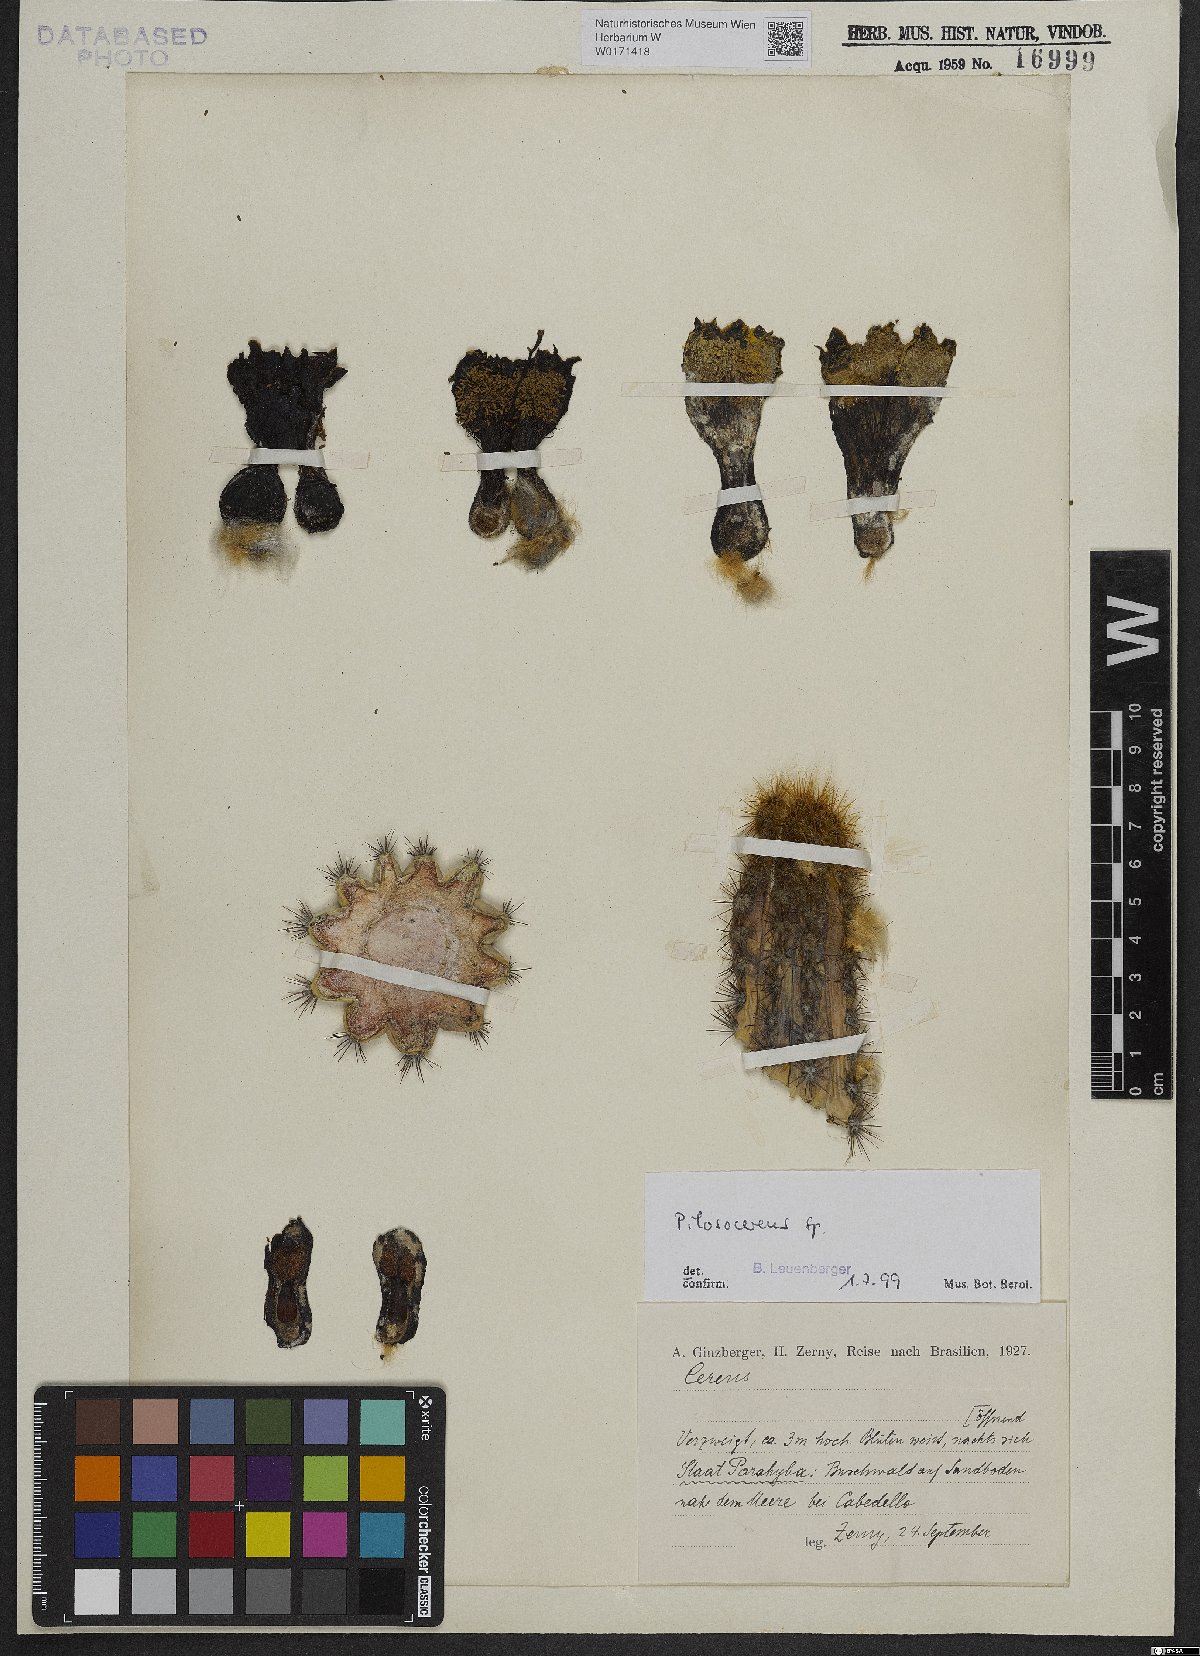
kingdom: Plantae
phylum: Tracheophyta
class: Magnoliopsida
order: Caryophyllales
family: Cactaceae
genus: Pilosocereus
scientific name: Pilosocereus
